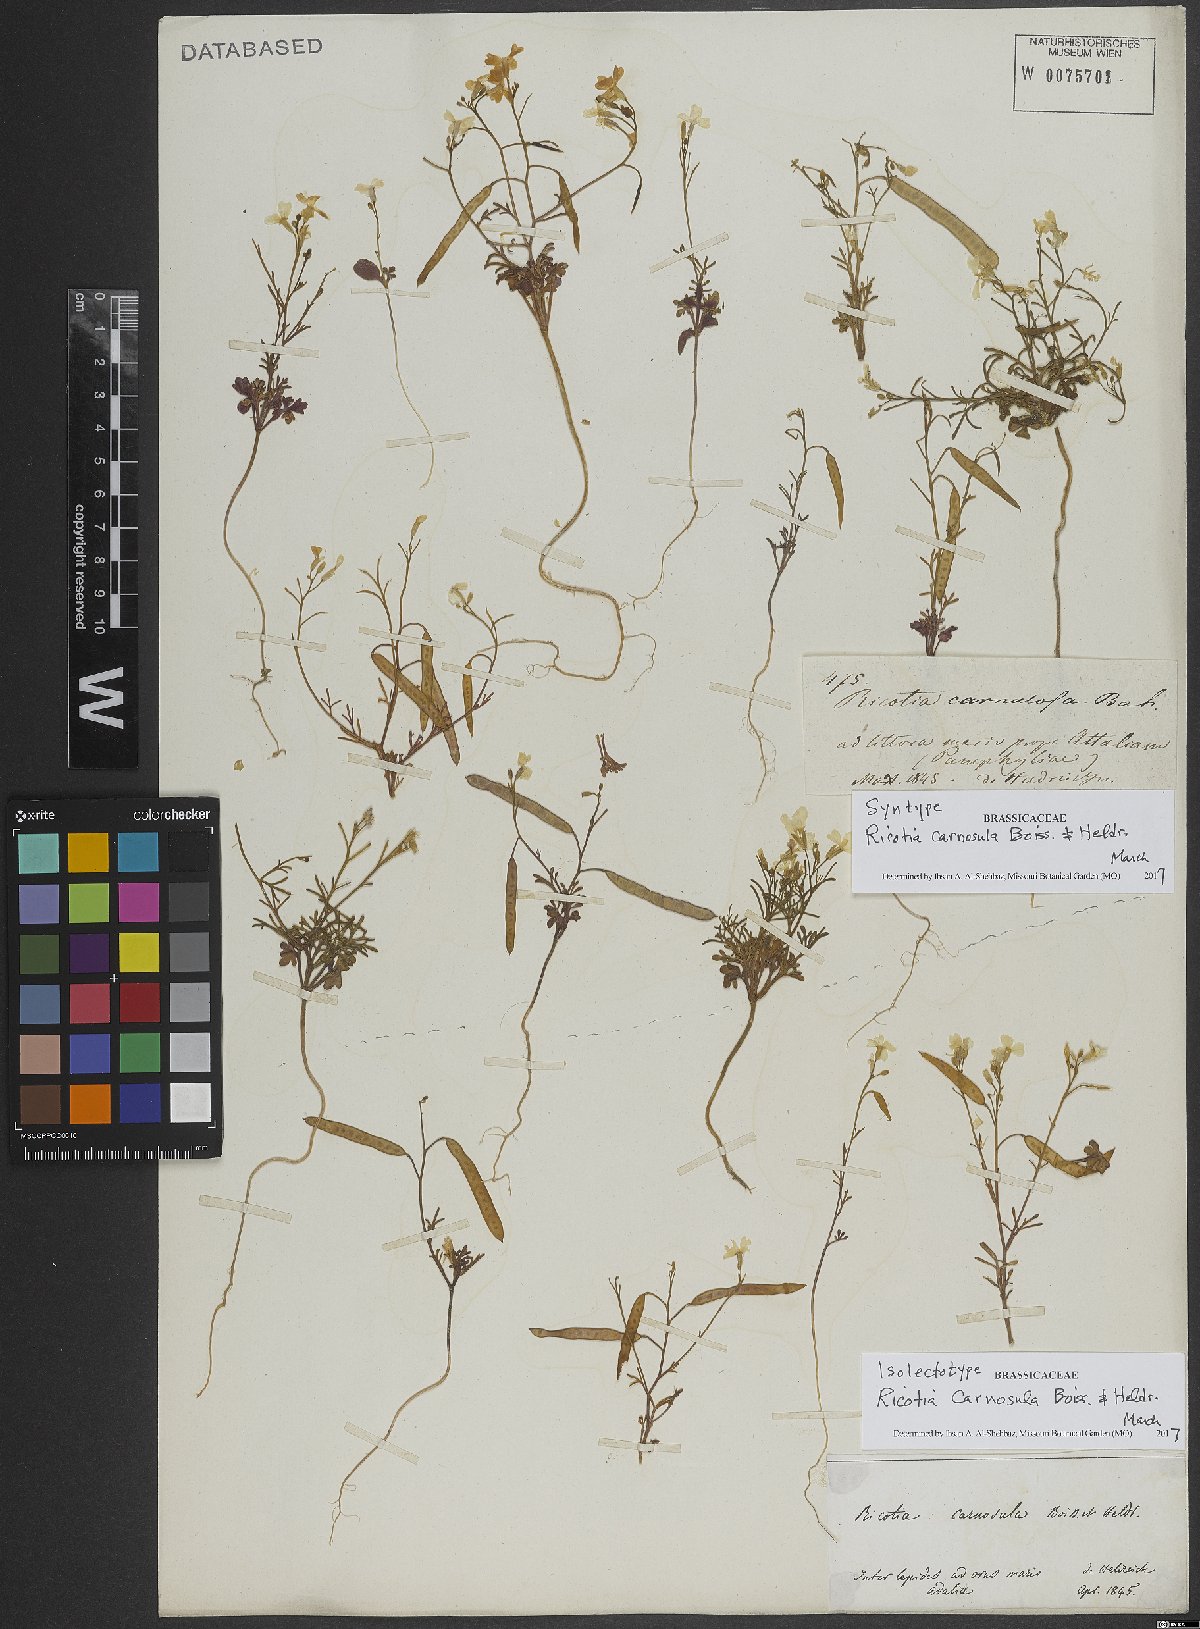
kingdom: Plantae
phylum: Tracheophyta
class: Magnoliopsida
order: Brassicales
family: Brassicaceae
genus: Ricotia
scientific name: Ricotia carnosula
